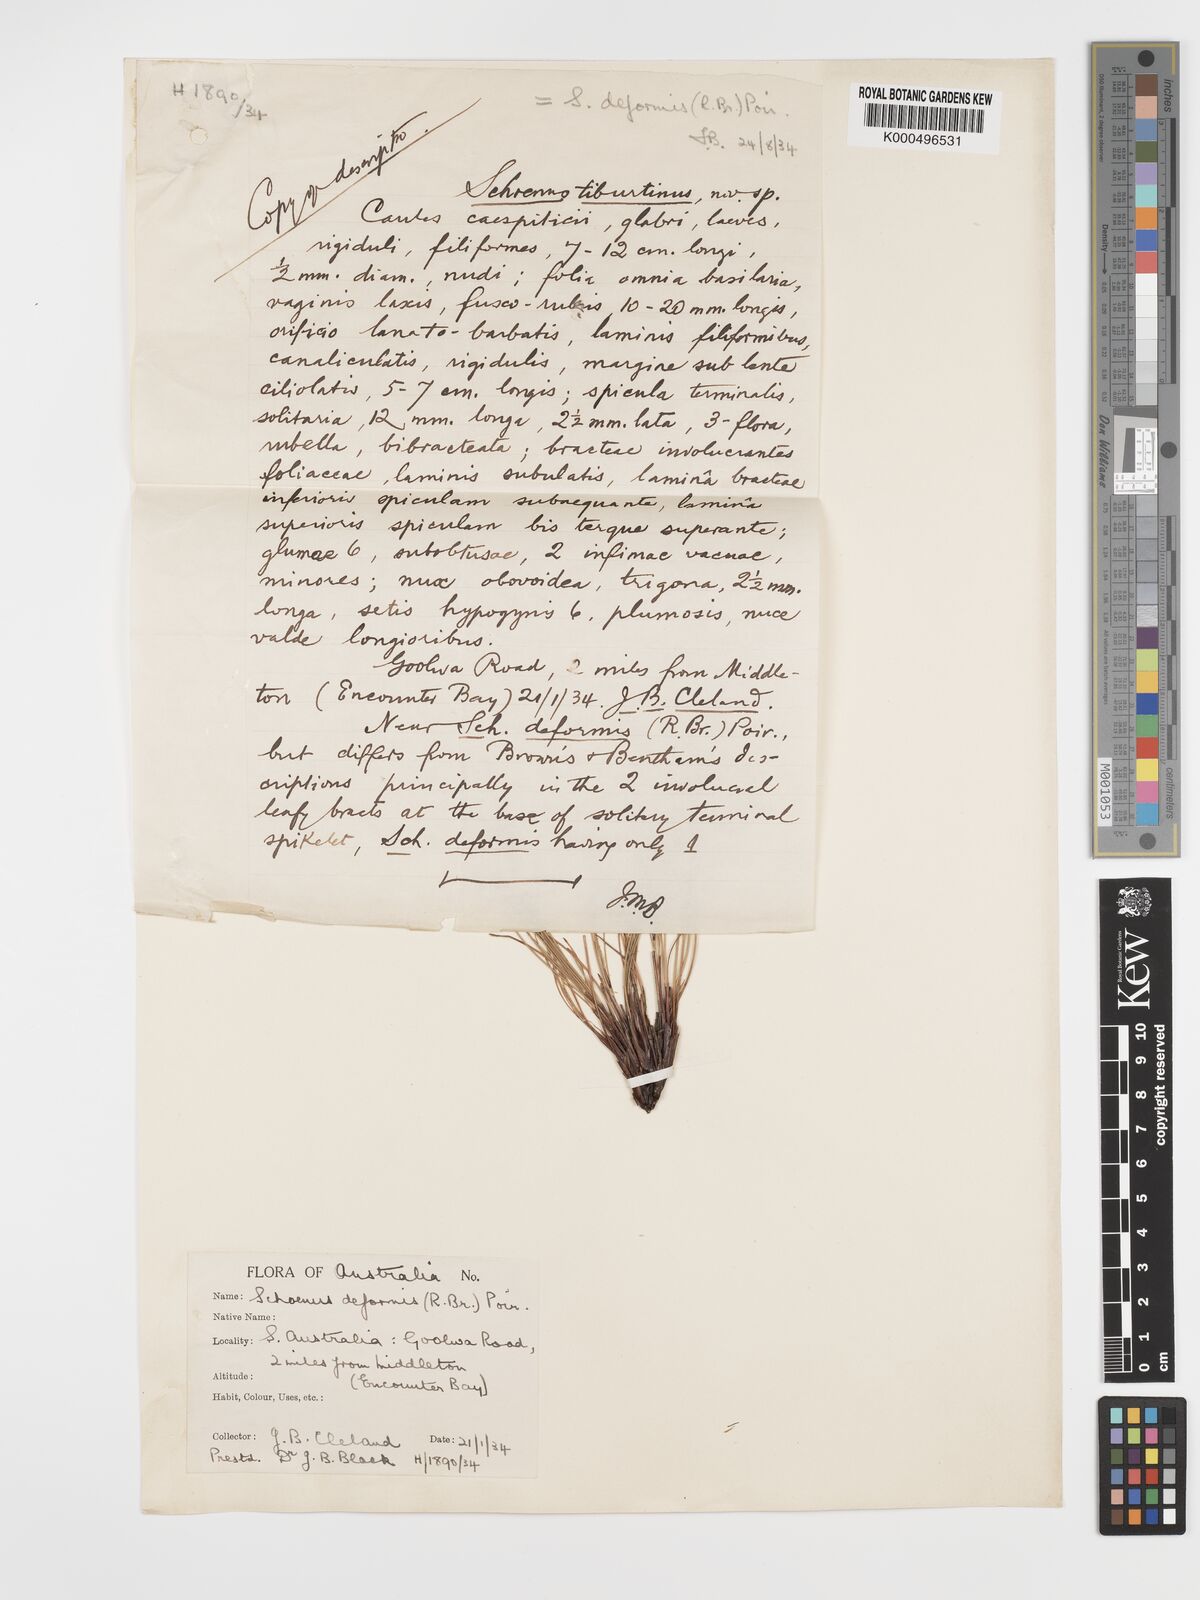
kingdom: Plantae
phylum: Tracheophyta
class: Liliopsida
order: Poales
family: Cyperaceae
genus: Schoenus
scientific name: Schoenus
